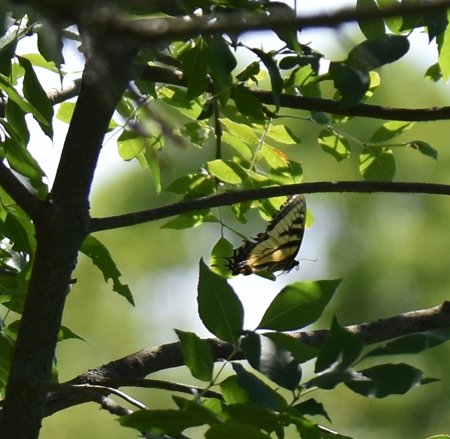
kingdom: Animalia
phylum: Arthropoda
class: Insecta
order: Lepidoptera
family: Papilionidae
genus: Pterourus
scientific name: Pterourus glaucus
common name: Eastern Tiger Swallowtail
